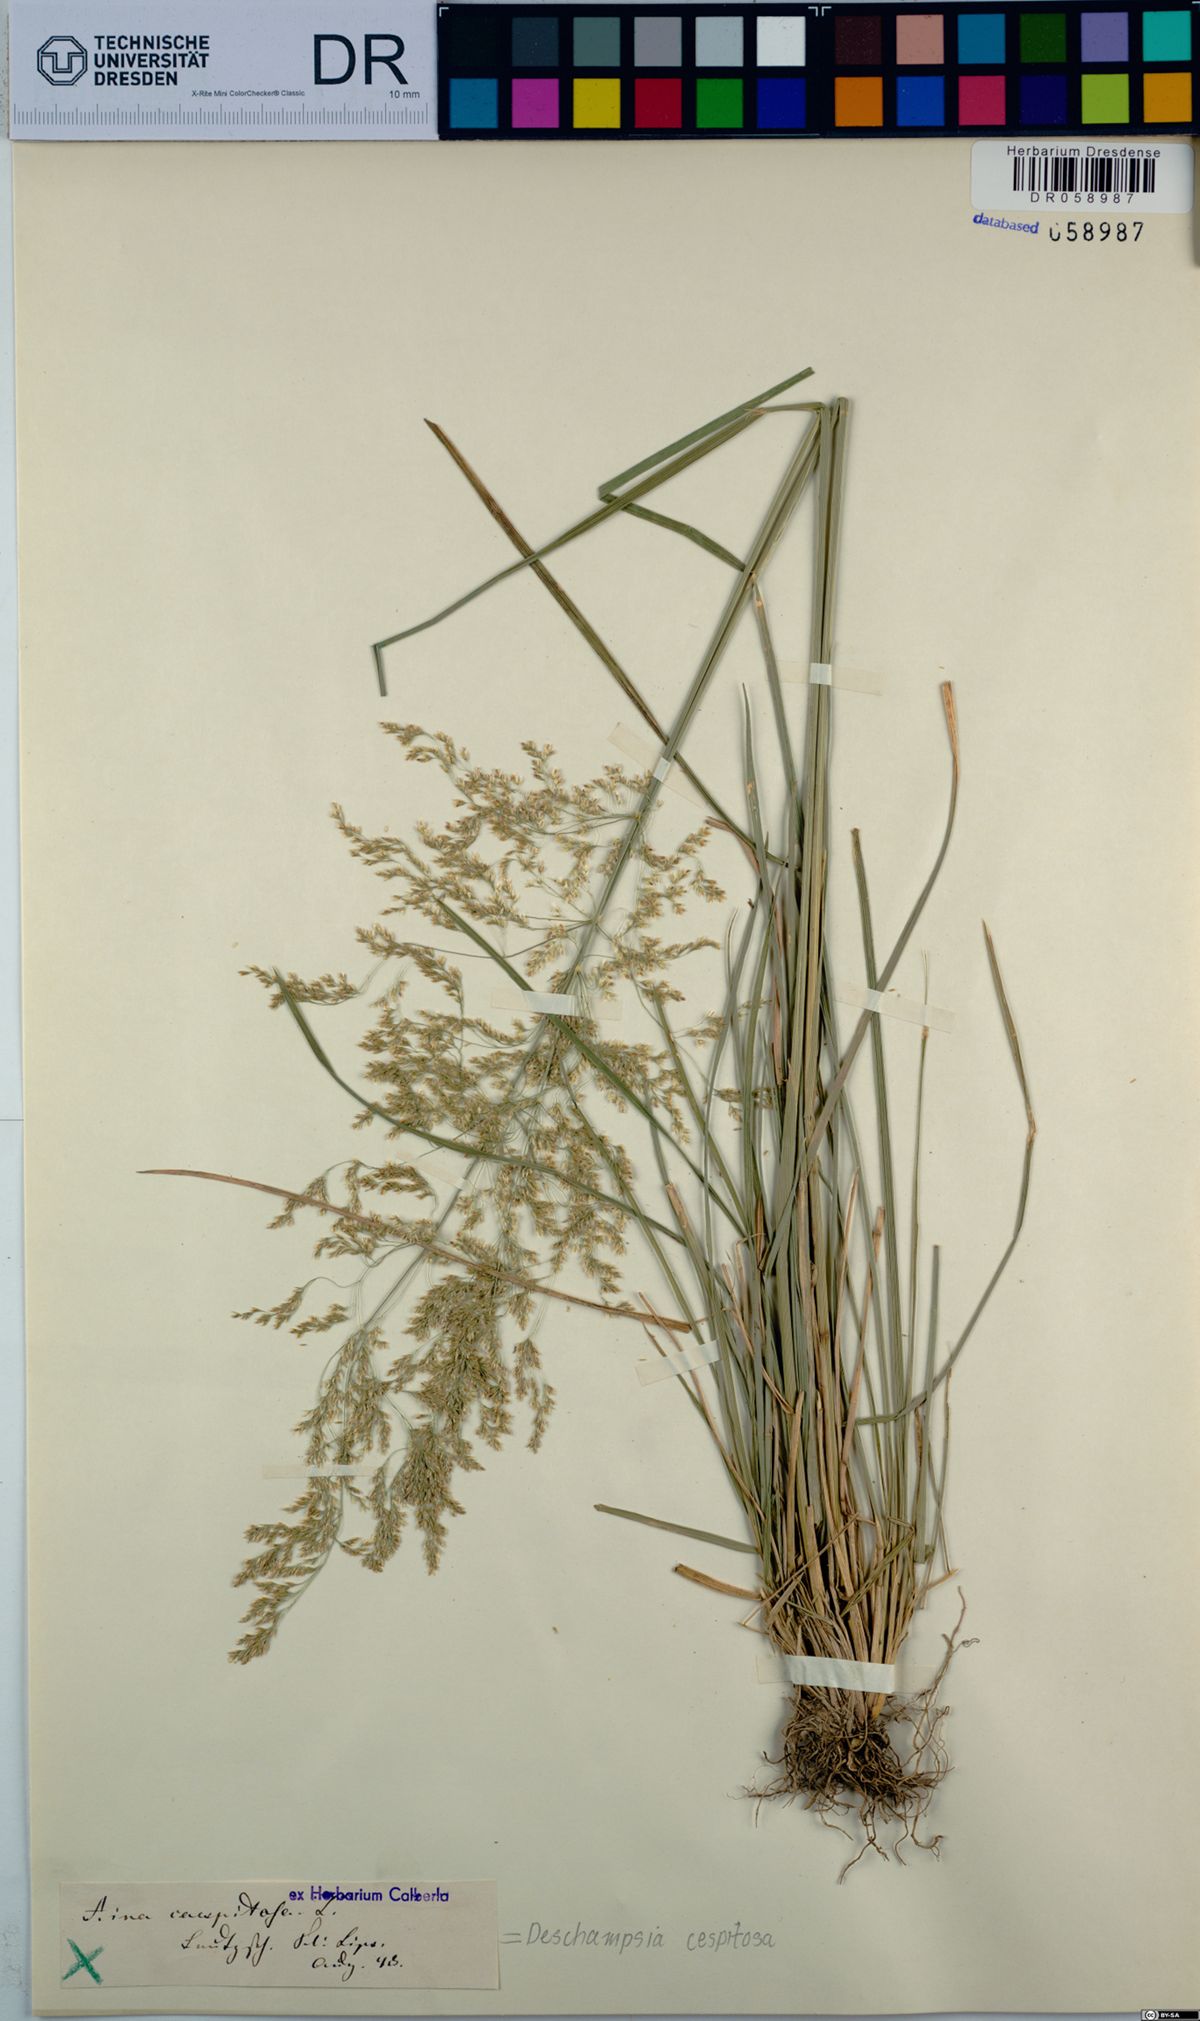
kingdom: Plantae
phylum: Tracheophyta
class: Liliopsida
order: Poales
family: Poaceae
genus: Deschampsia
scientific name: Deschampsia cespitosa
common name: Tufted hair-grass
